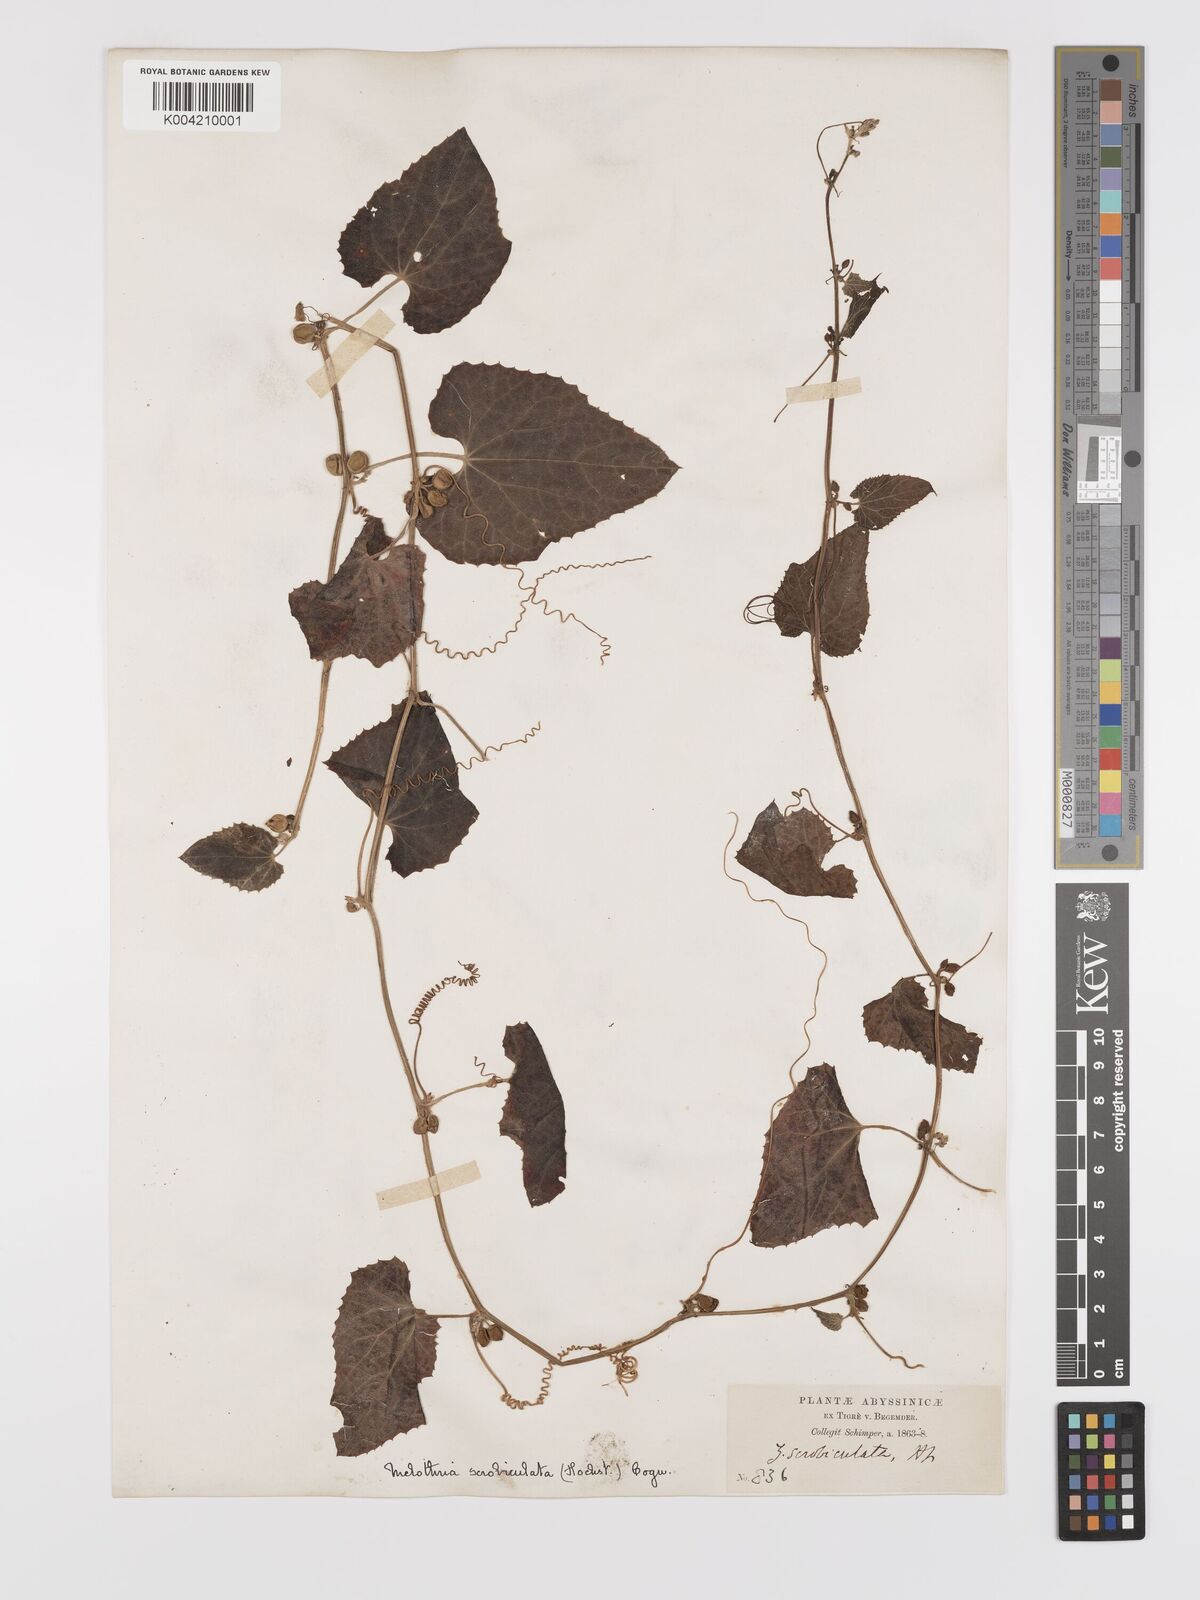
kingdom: Plantae
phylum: Tracheophyta
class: Magnoliopsida
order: Cucurbitales
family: Cucurbitaceae
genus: Zehneria
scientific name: Zehneria scabra
